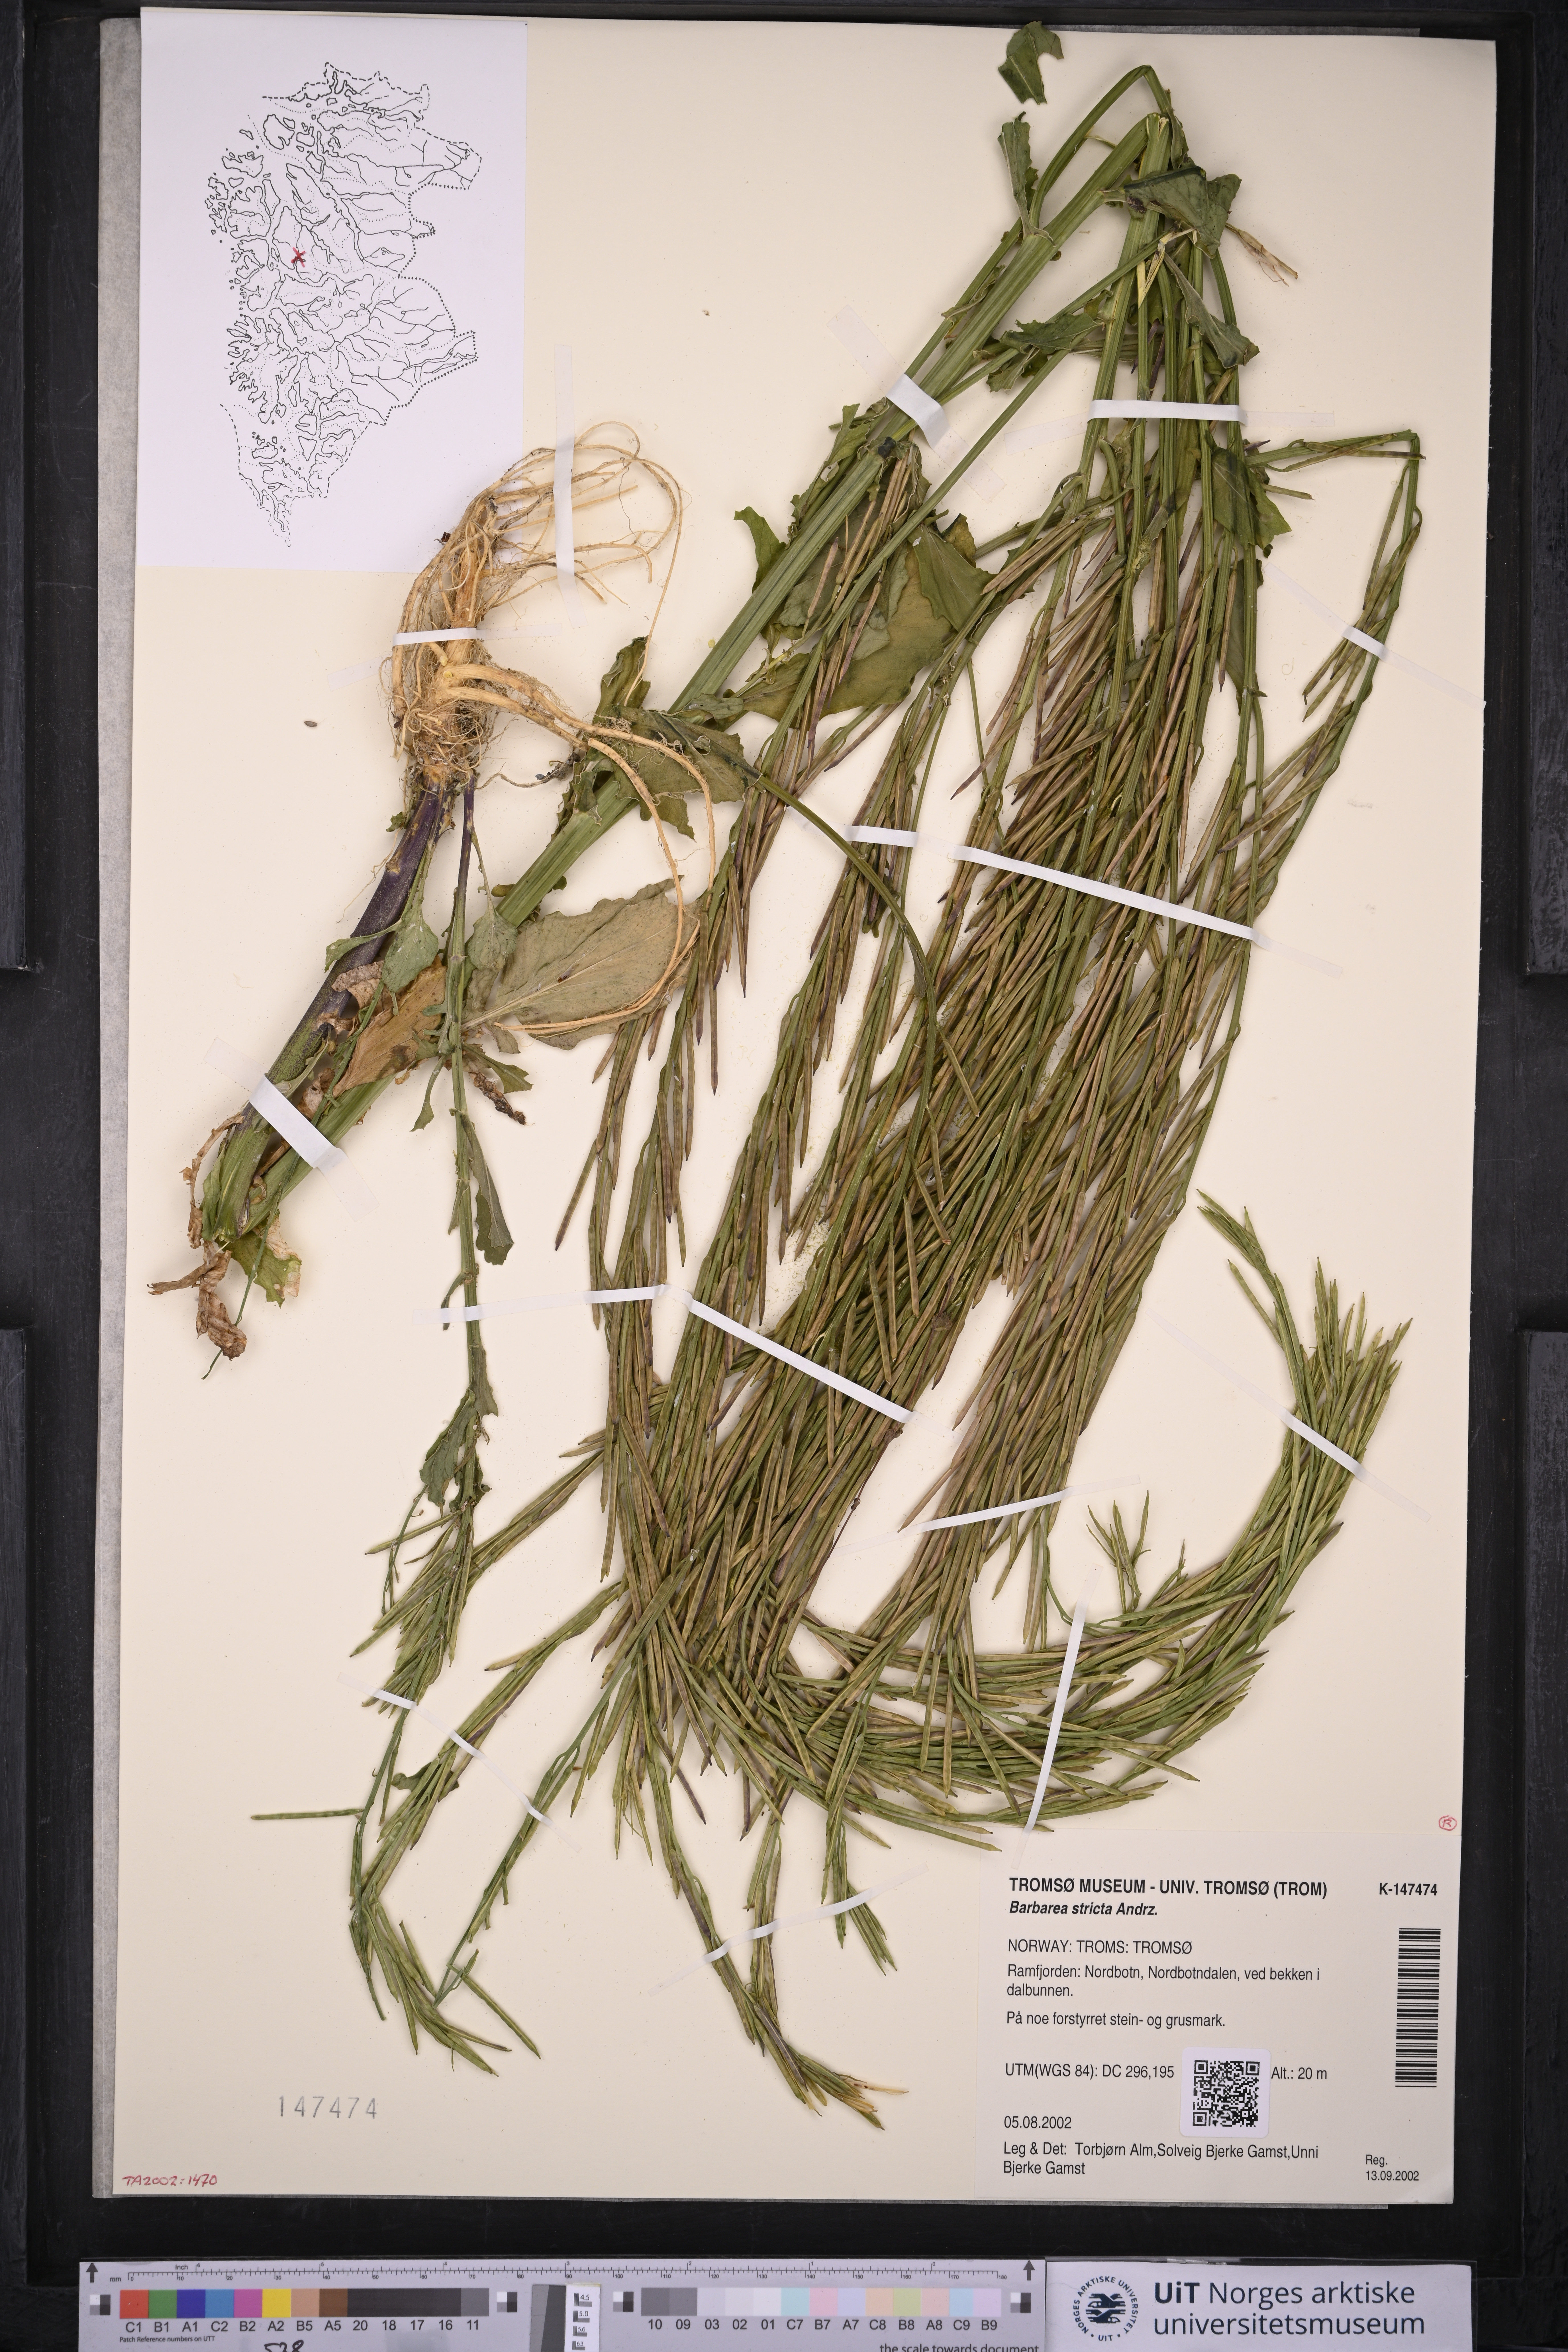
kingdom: Plantae
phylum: Tracheophyta
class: Magnoliopsida
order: Brassicales
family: Brassicaceae
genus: Barbarea
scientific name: Barbarea stricta
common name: Small-flowered winter-cress
